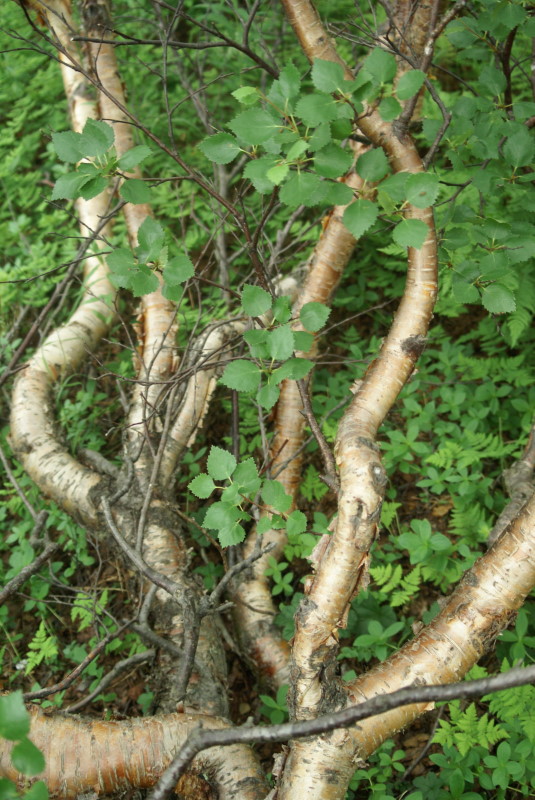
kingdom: Plantae
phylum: Tracheophyta
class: Magnoliopsida
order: Fagales
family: Betulaceae
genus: Betula
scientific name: Betula nana
